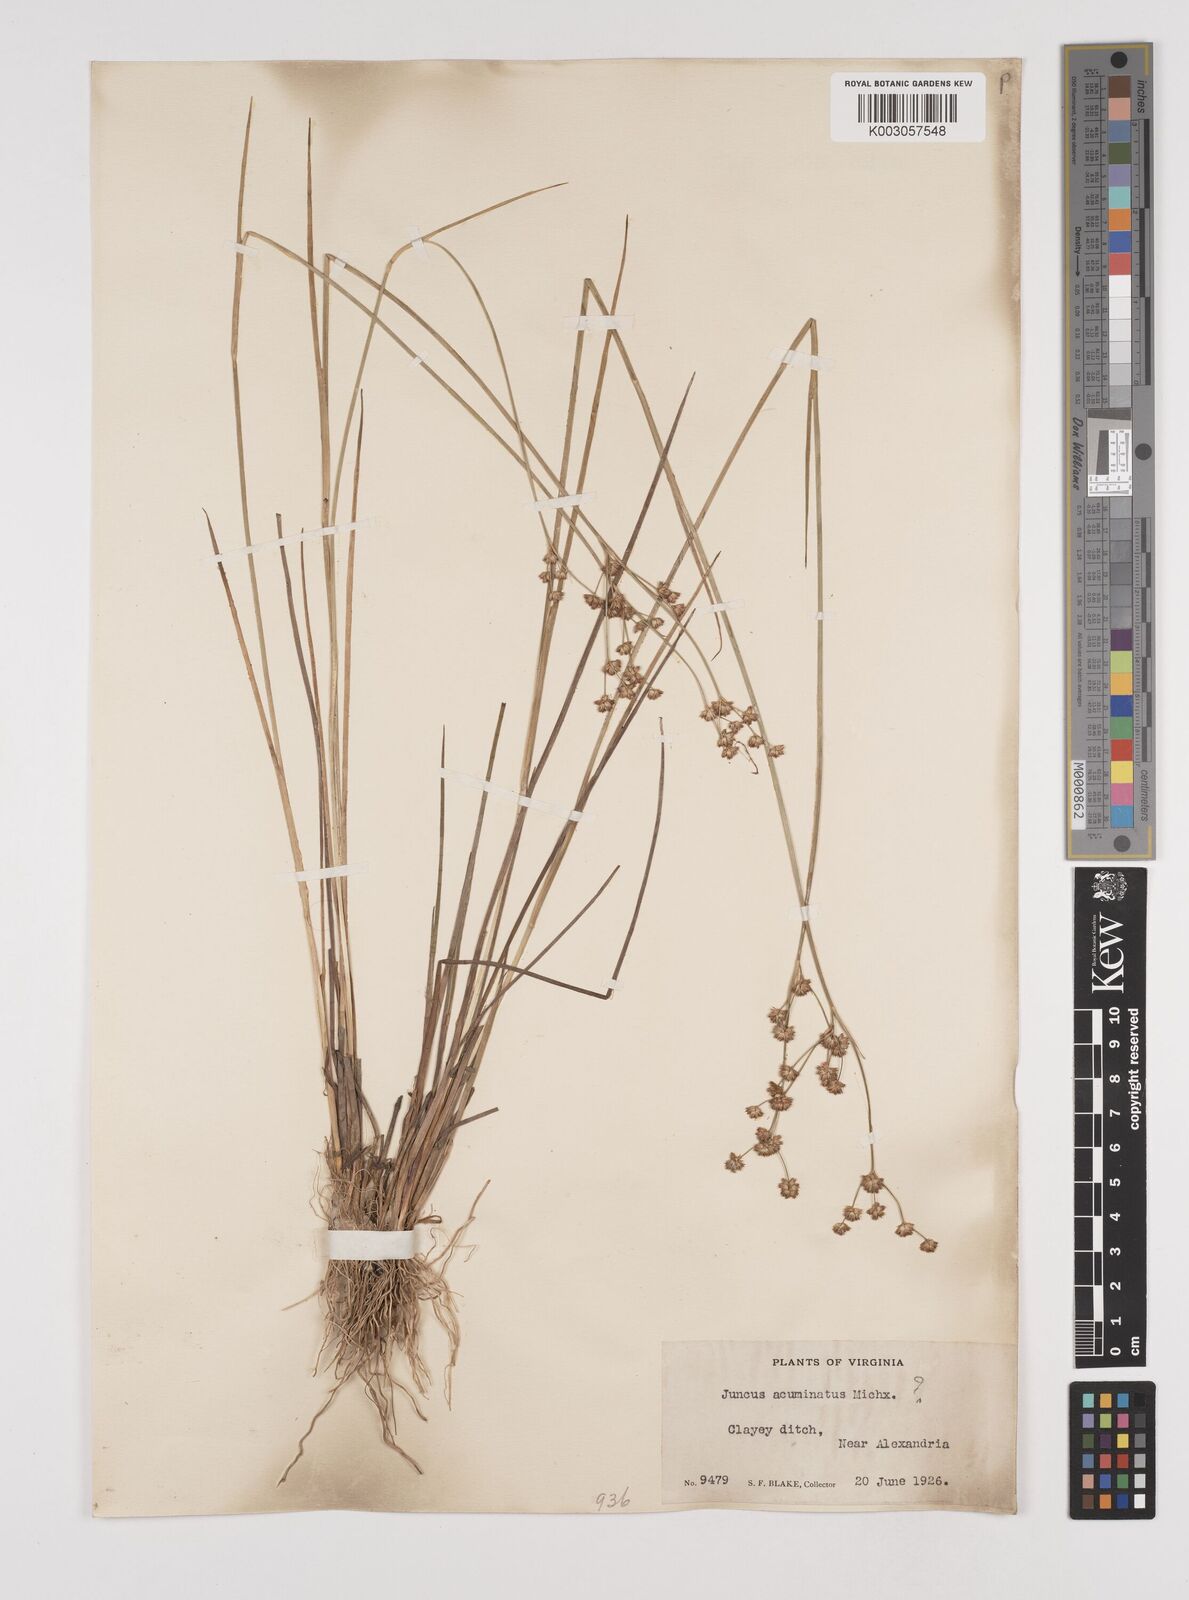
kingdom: Plantae
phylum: Tracheophyta
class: Liliopsida
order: Poales
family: Juncaceae
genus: Juncus
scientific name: Juncus acuminatus
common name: Knotty-leaved rush
